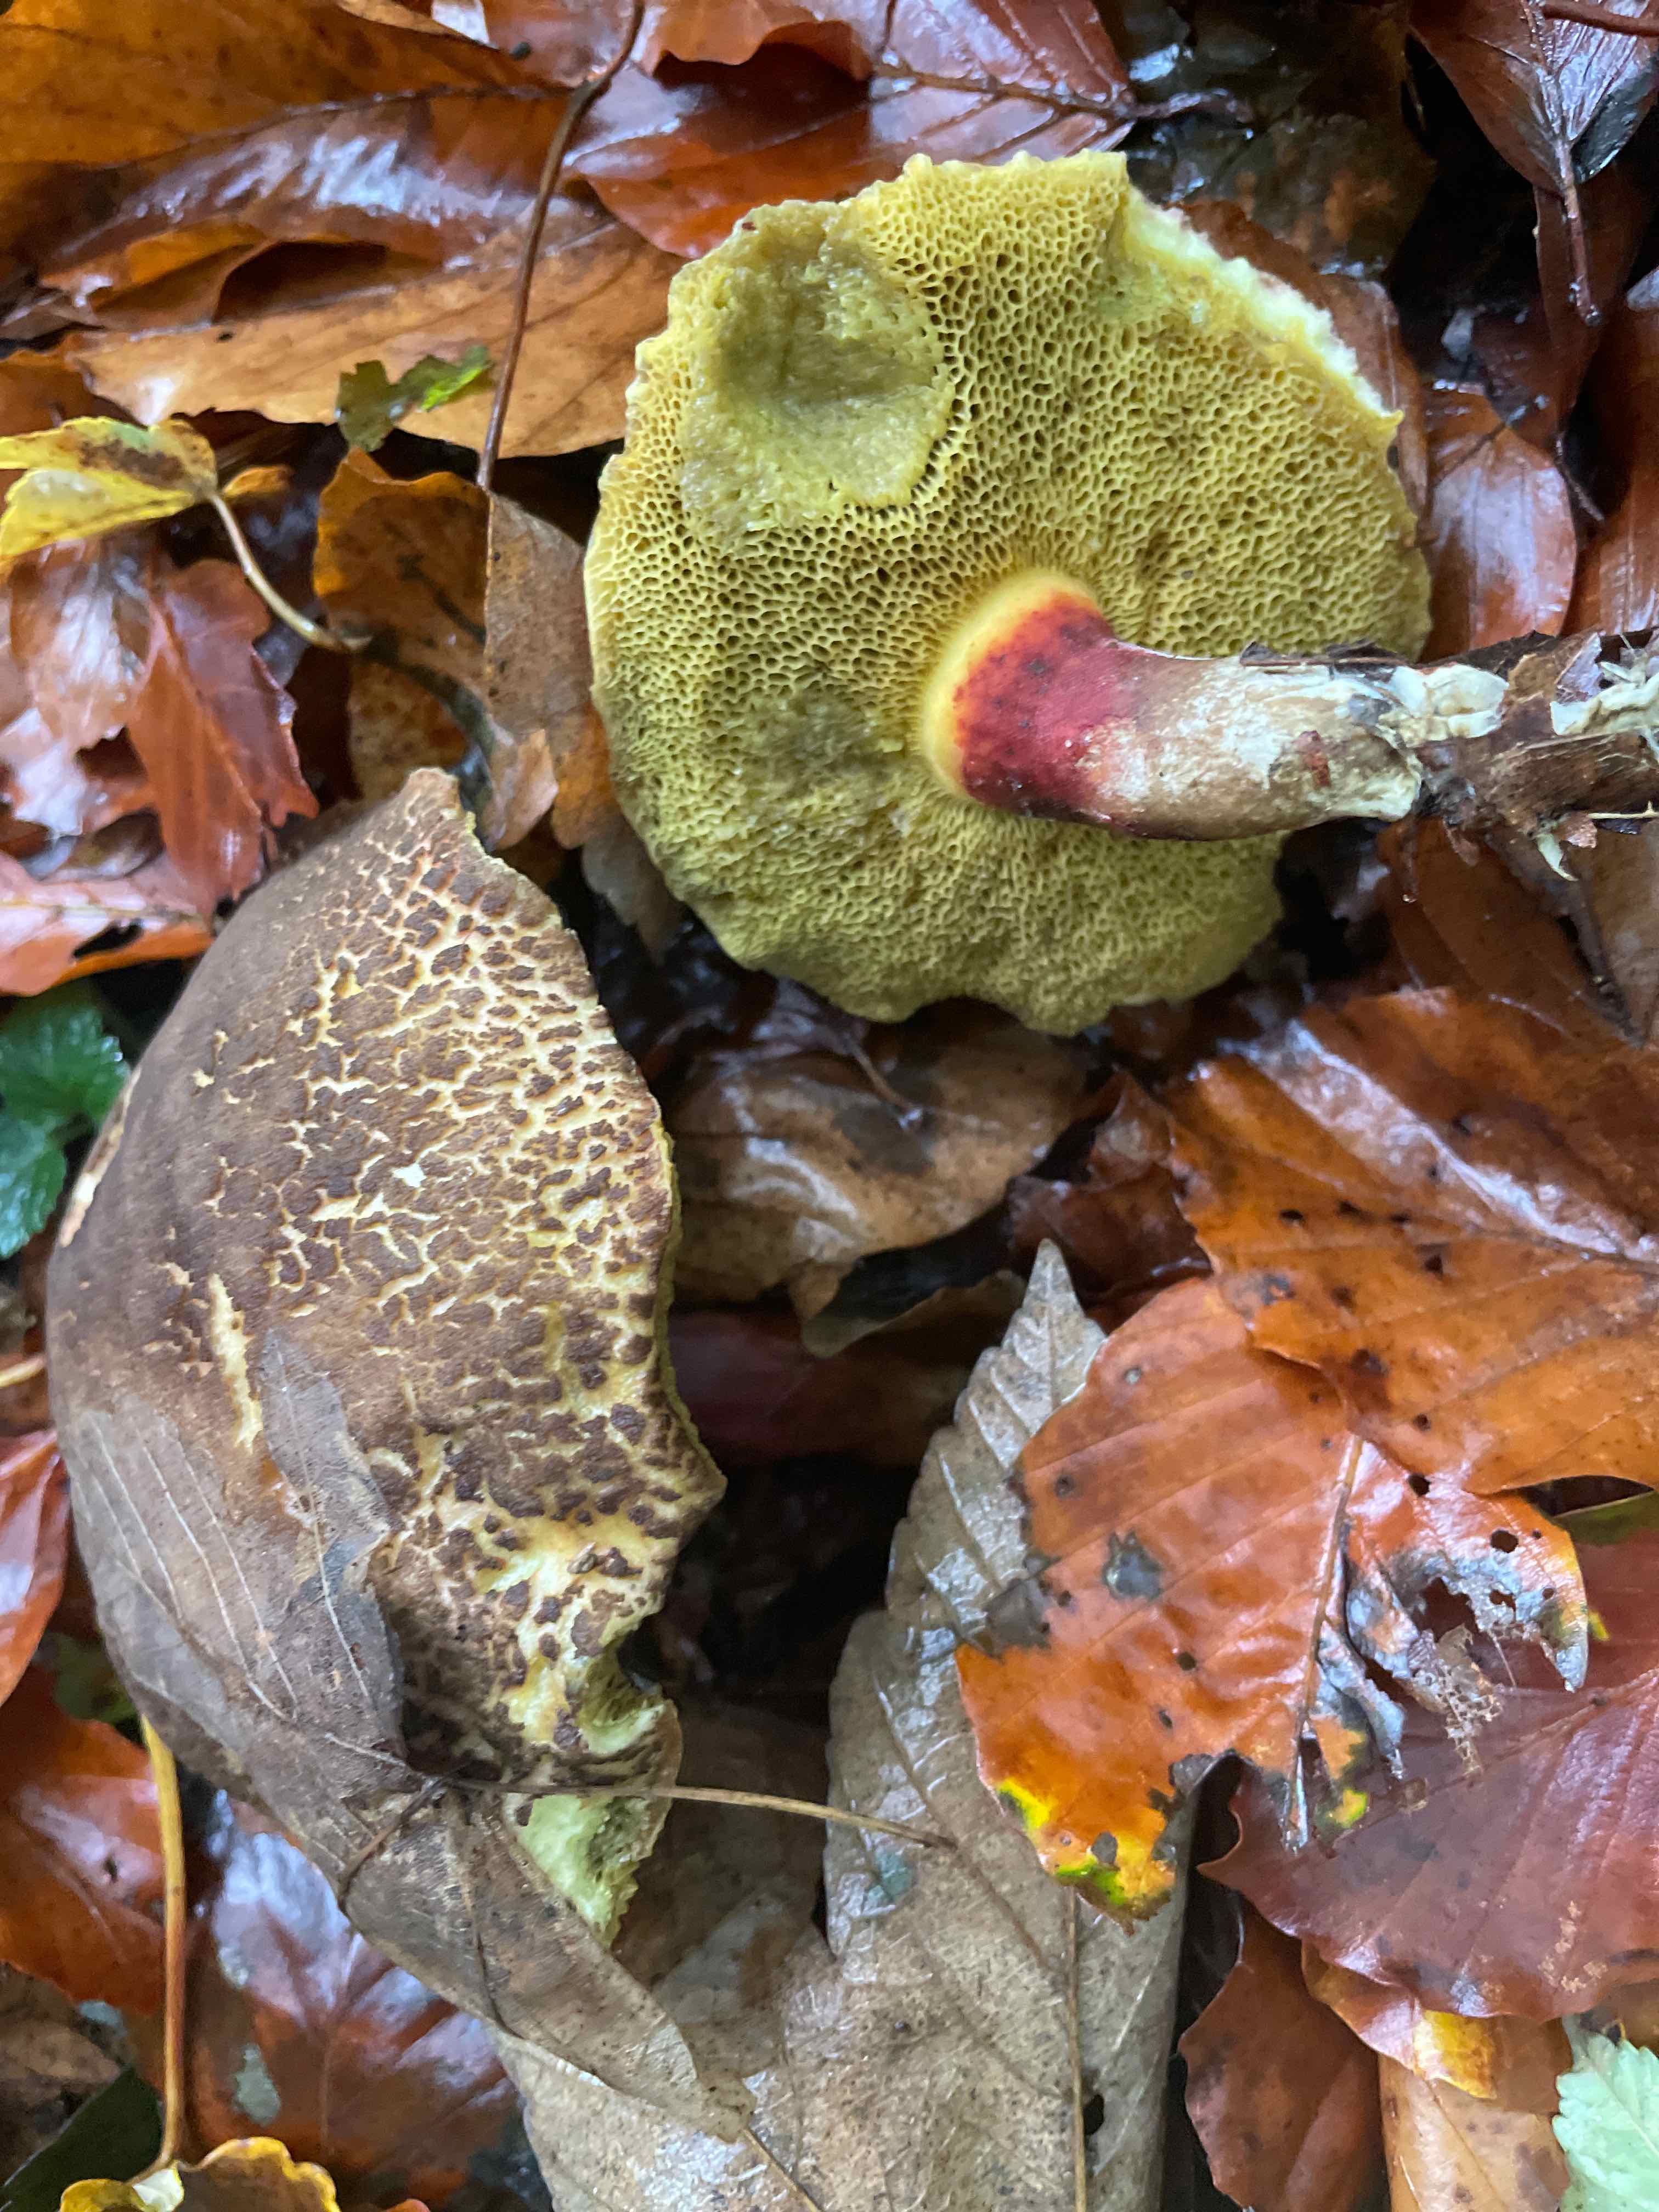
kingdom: Fungi
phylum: Basidiomycota
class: Agaricomycetes
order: Boletales
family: Boletaceae
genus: Xerocomellus
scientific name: Xerocomellus
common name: dværgrørhat
